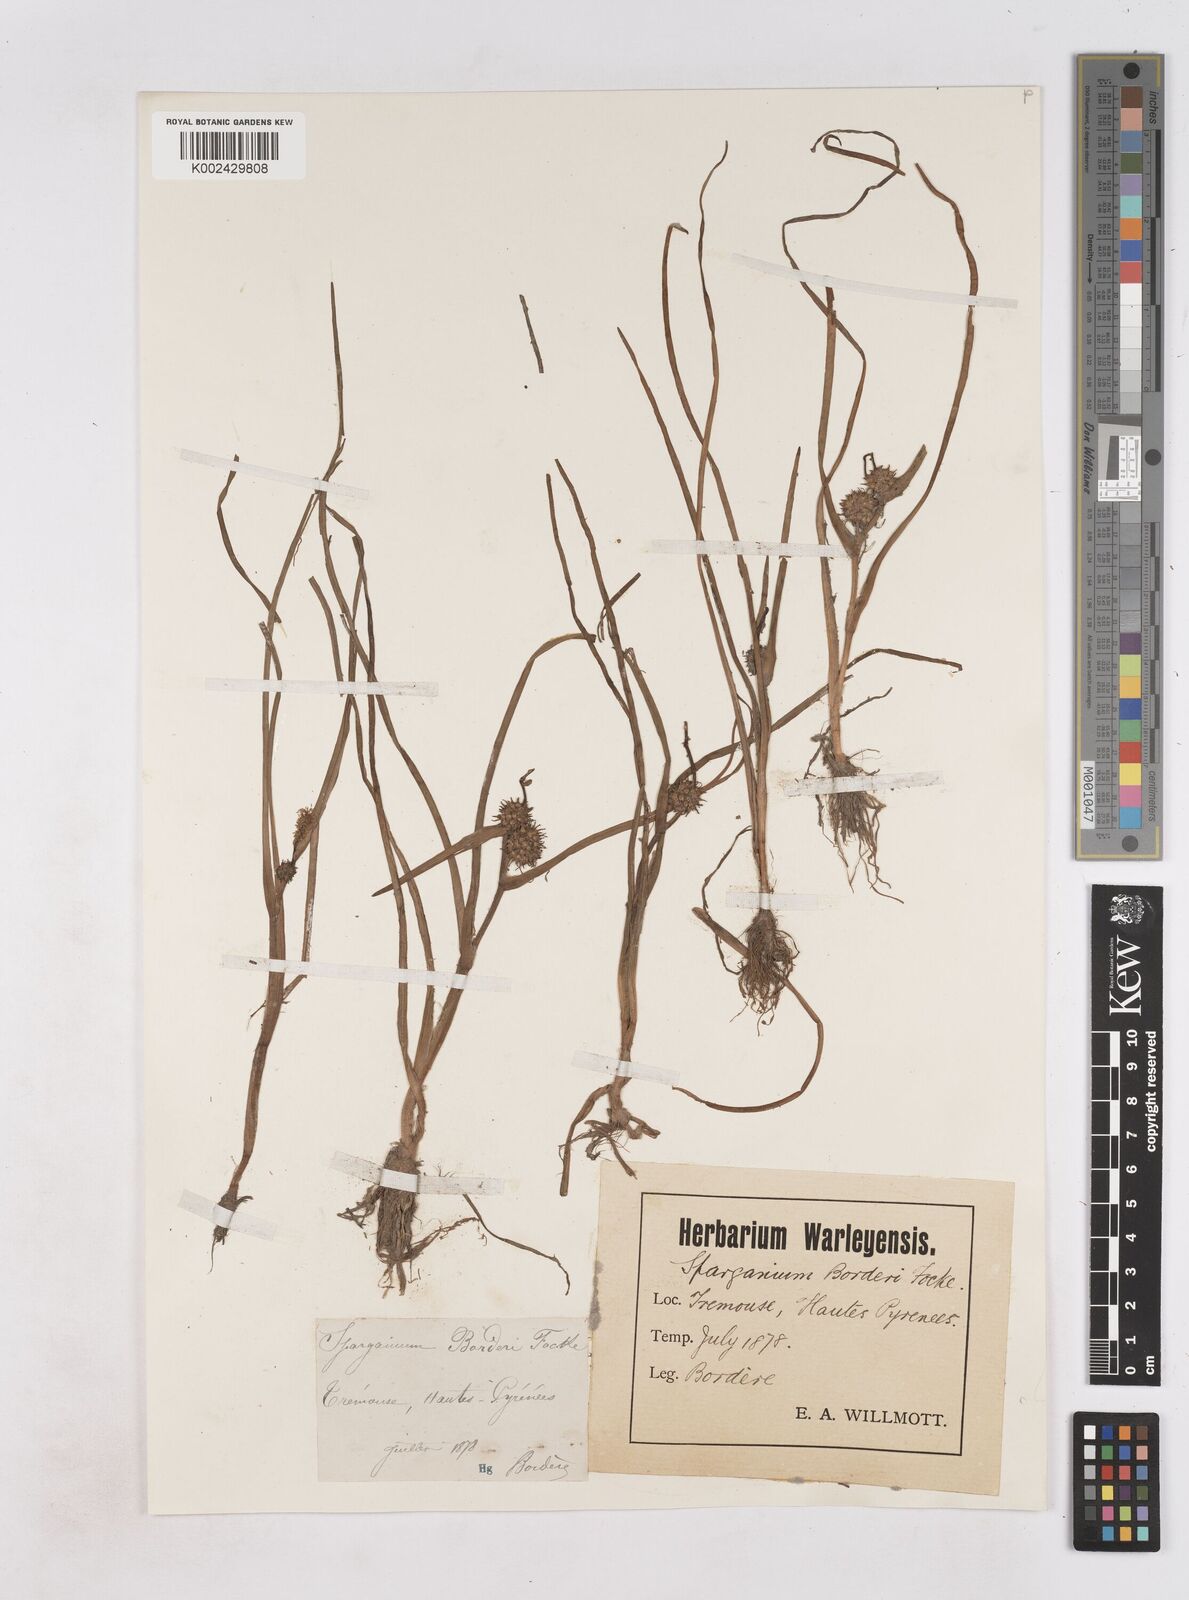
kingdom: Plantae
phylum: Tracheophyta
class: Liliopsida
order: Poales
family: Typhaceae
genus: Sparganium
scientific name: Sparganium angustifolium
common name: Floating bur-reed
